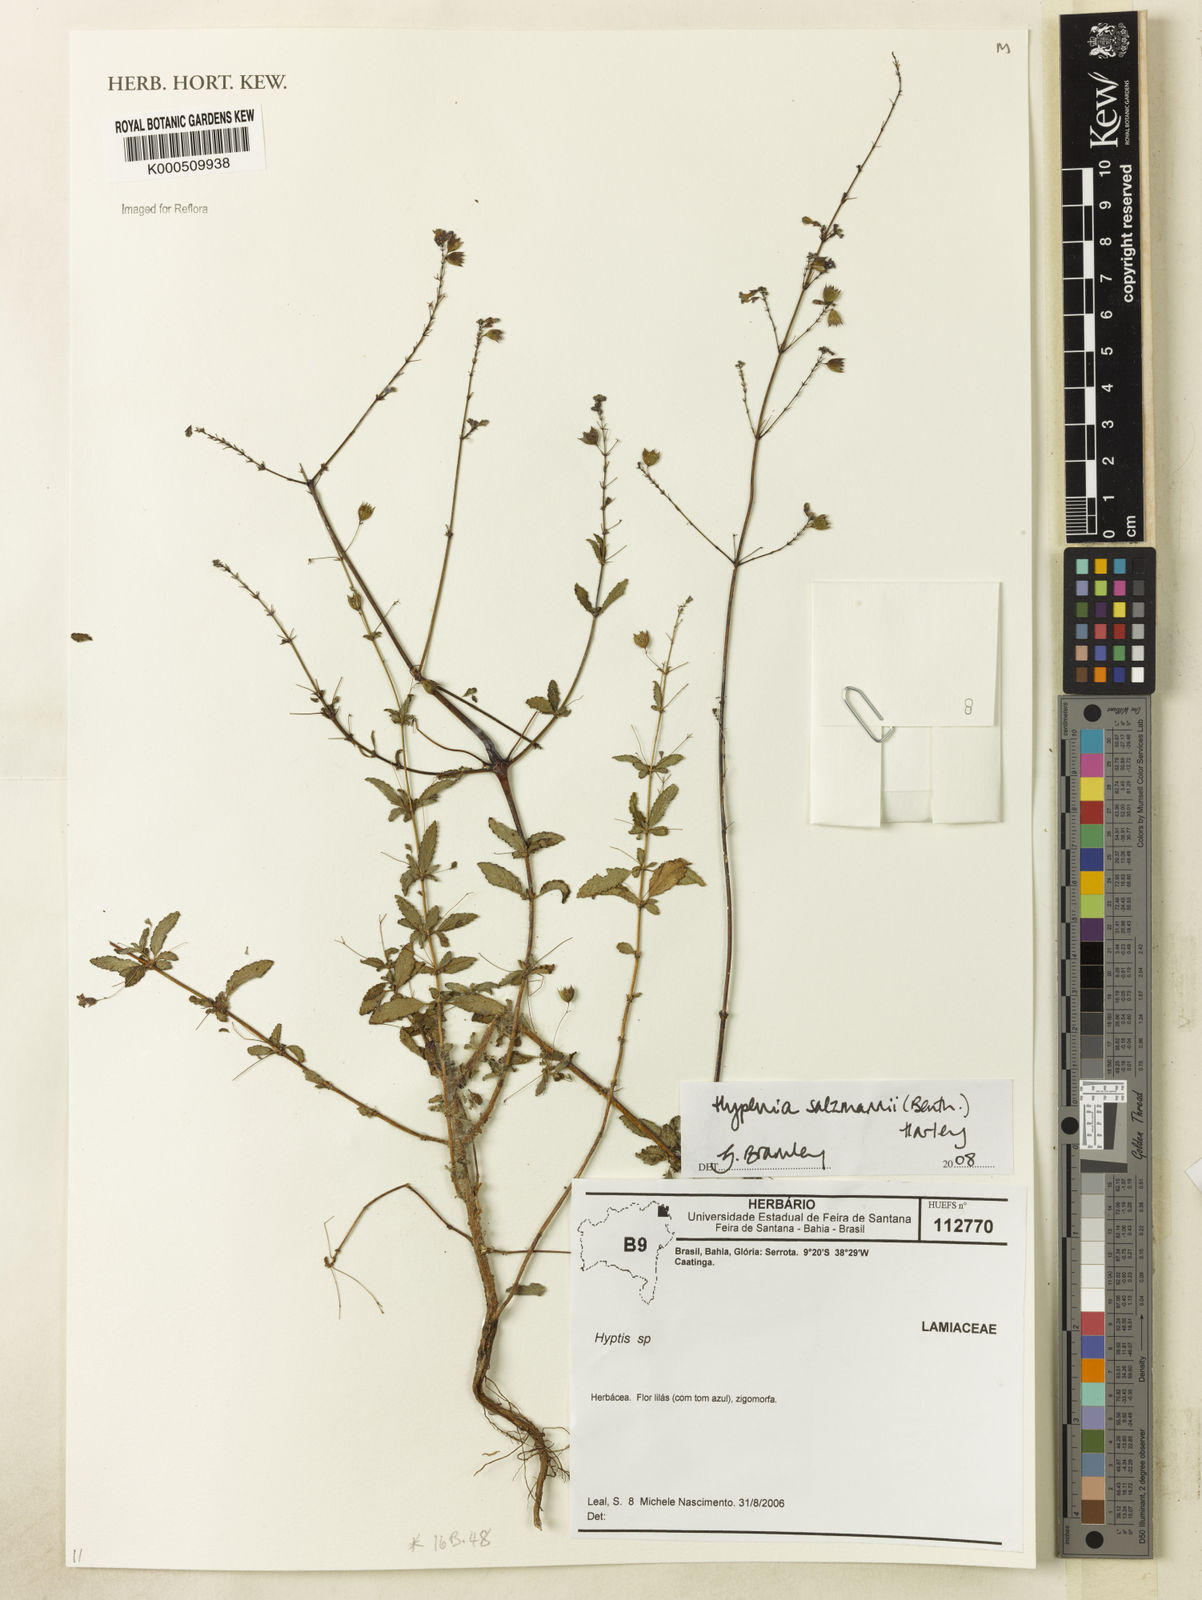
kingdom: Plantae
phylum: Tracheophyta
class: Magnoliopsida
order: Lamiales
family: Lamiaceae
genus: Hypenia
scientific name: Hypenia salzmannii
